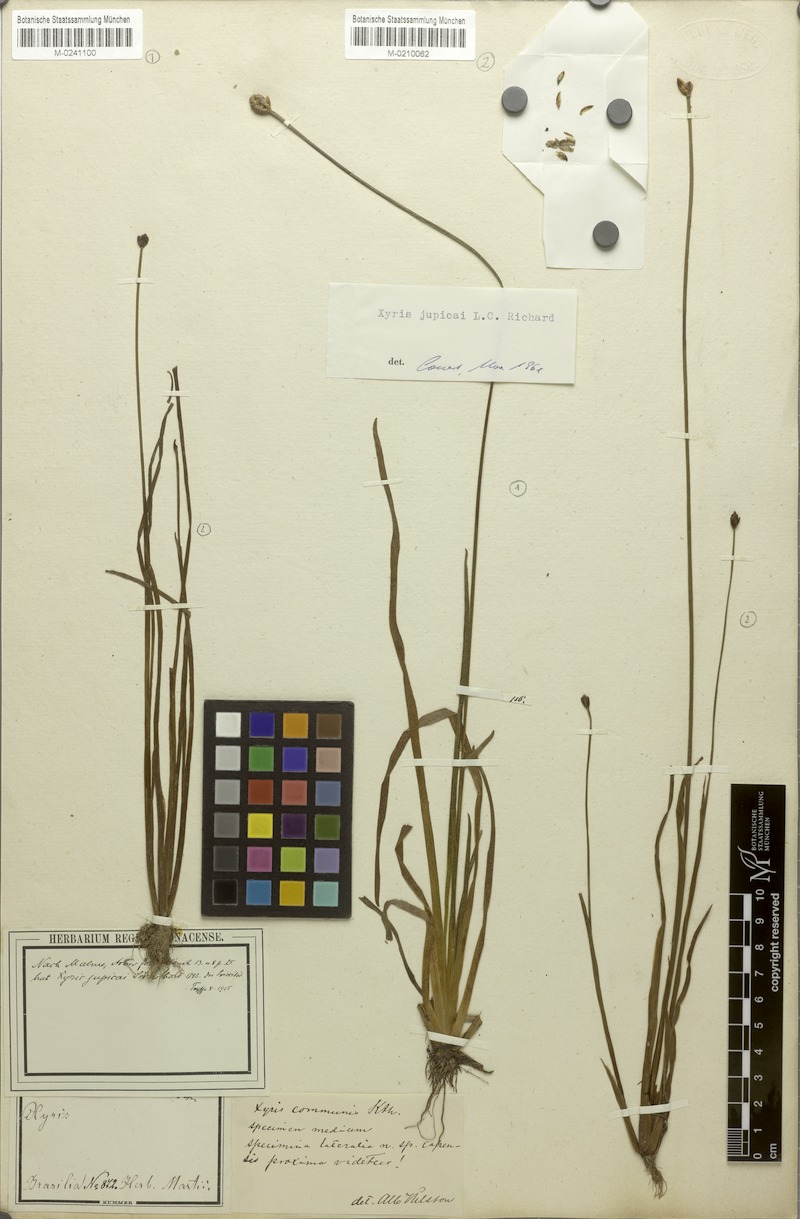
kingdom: Plantae
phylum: Tracheophyta
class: Liliopsida
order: Poales
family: Xyridaceae
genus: Xyris
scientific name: Xyris
